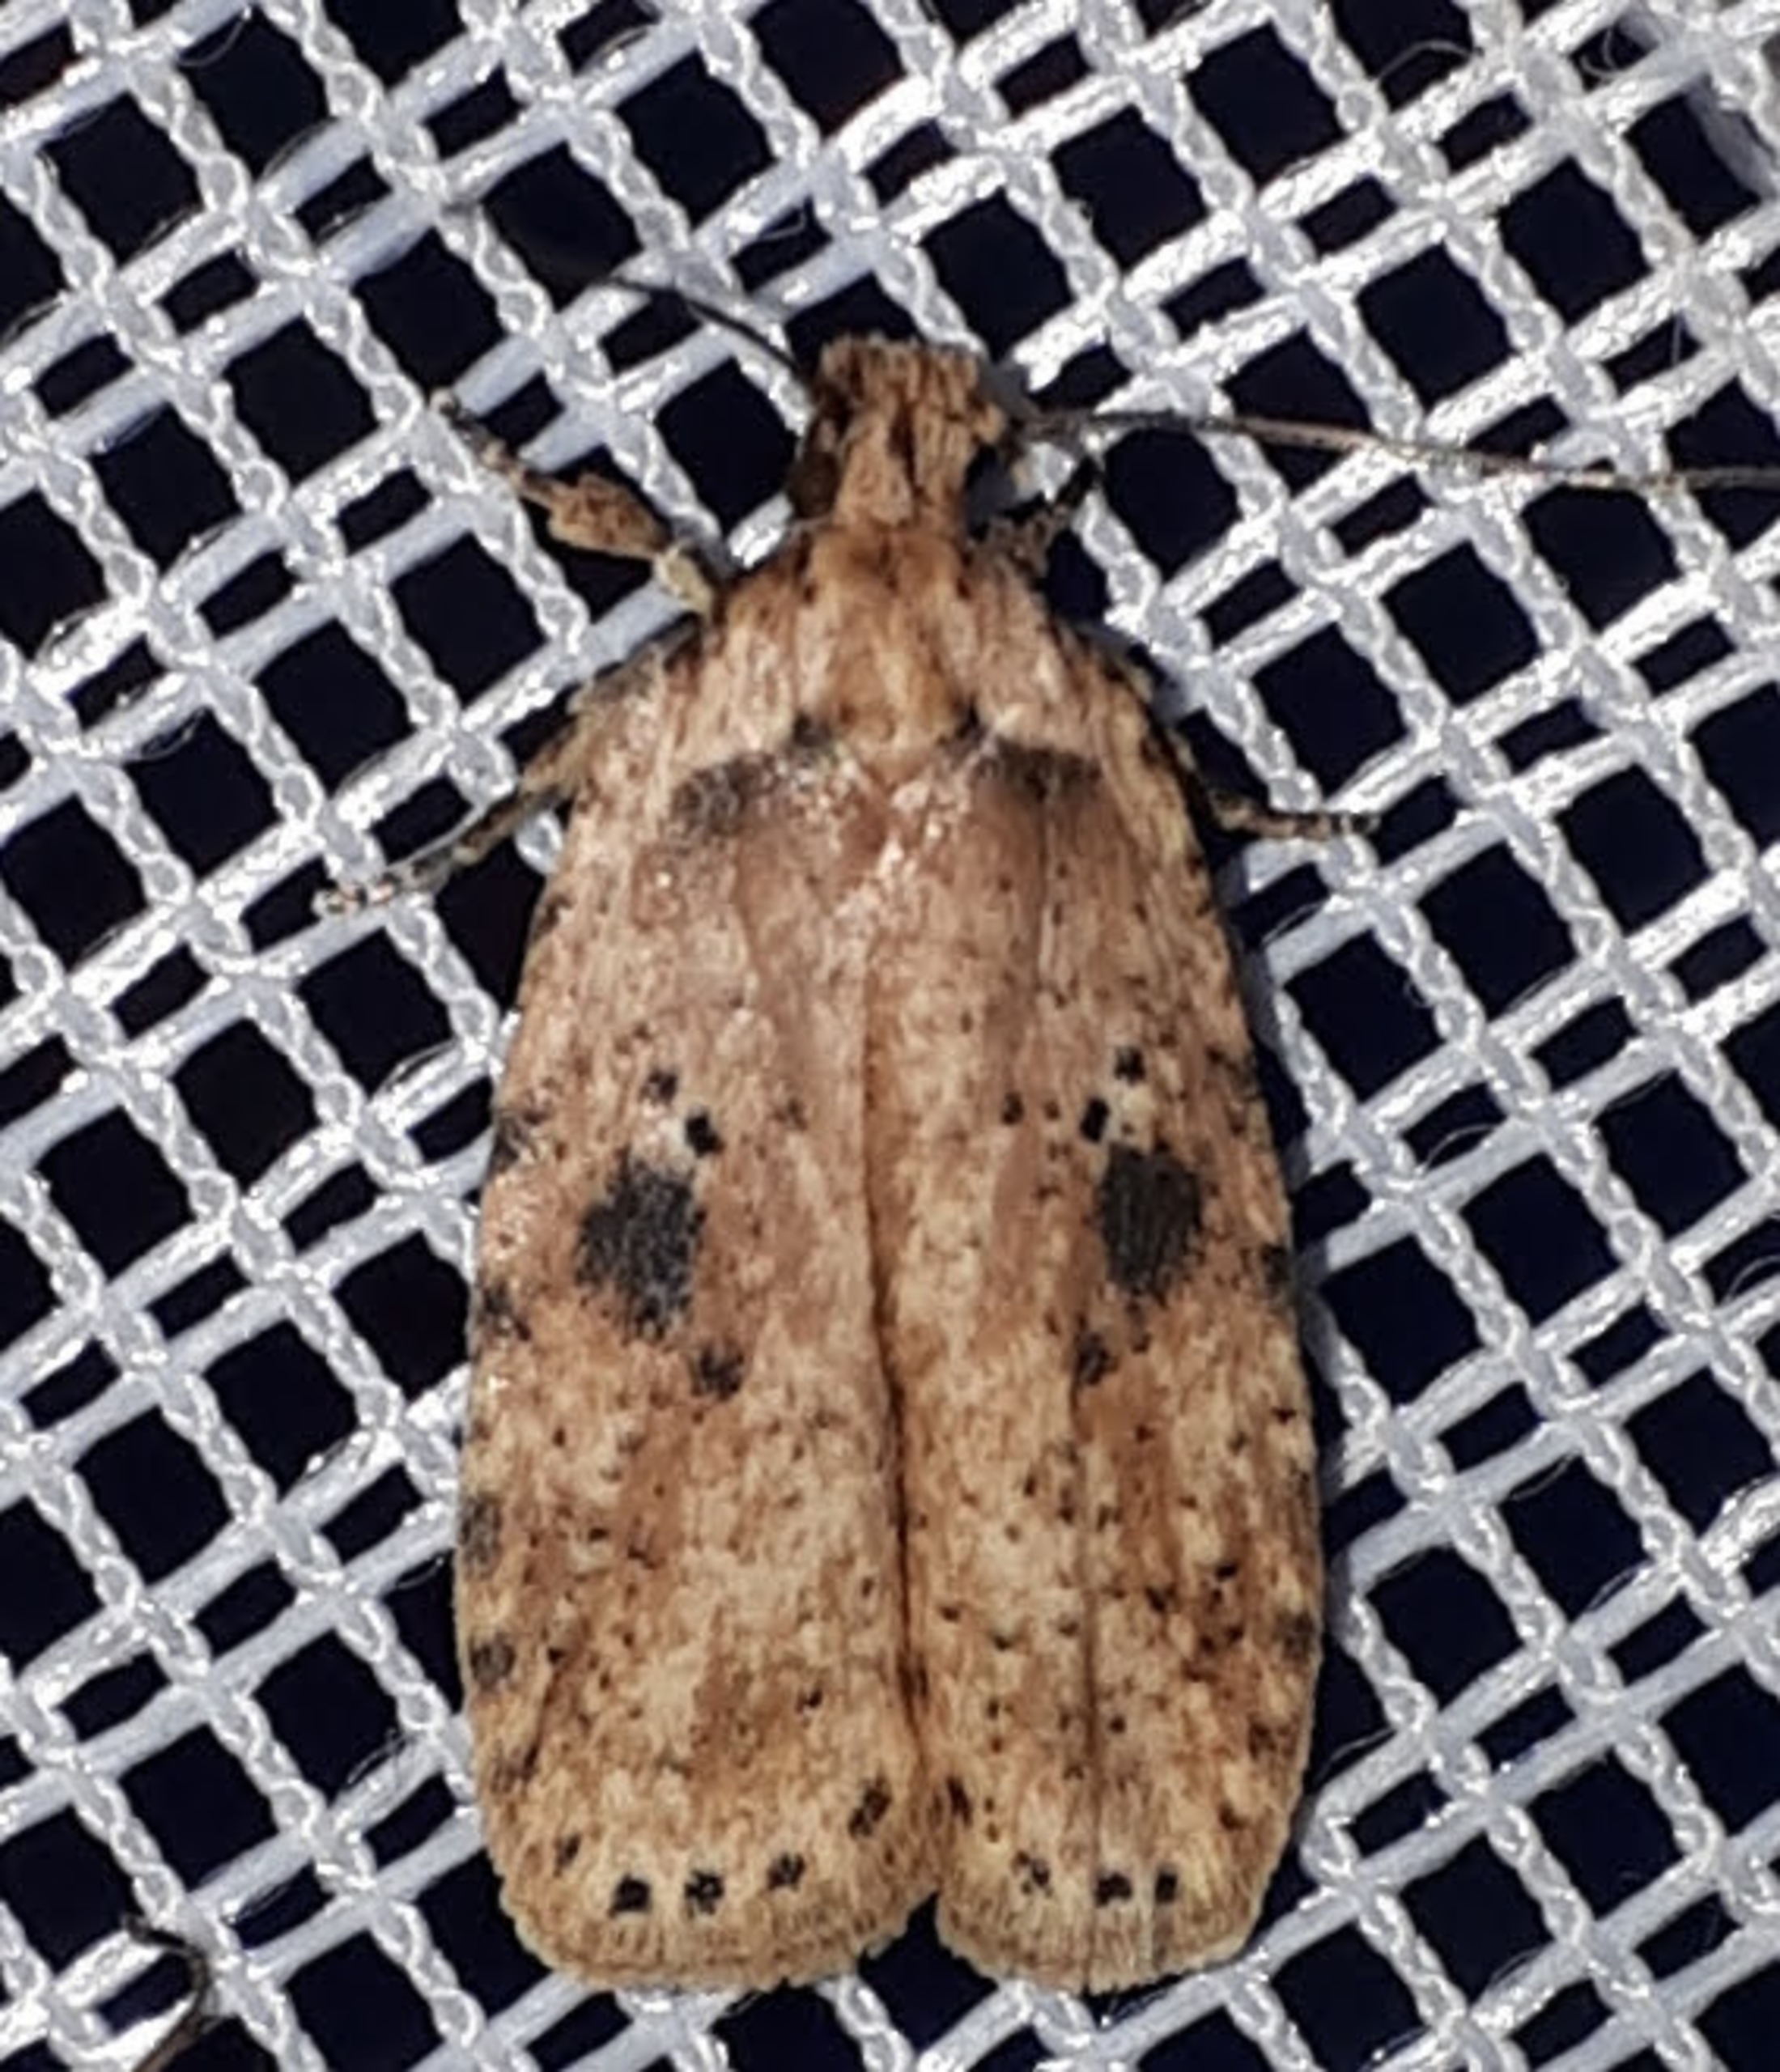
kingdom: Animalia
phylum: Arthropoda
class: Insecta
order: Lepidoptera
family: Depressariidae
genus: Agonopterix
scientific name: Agonopterix arenella
